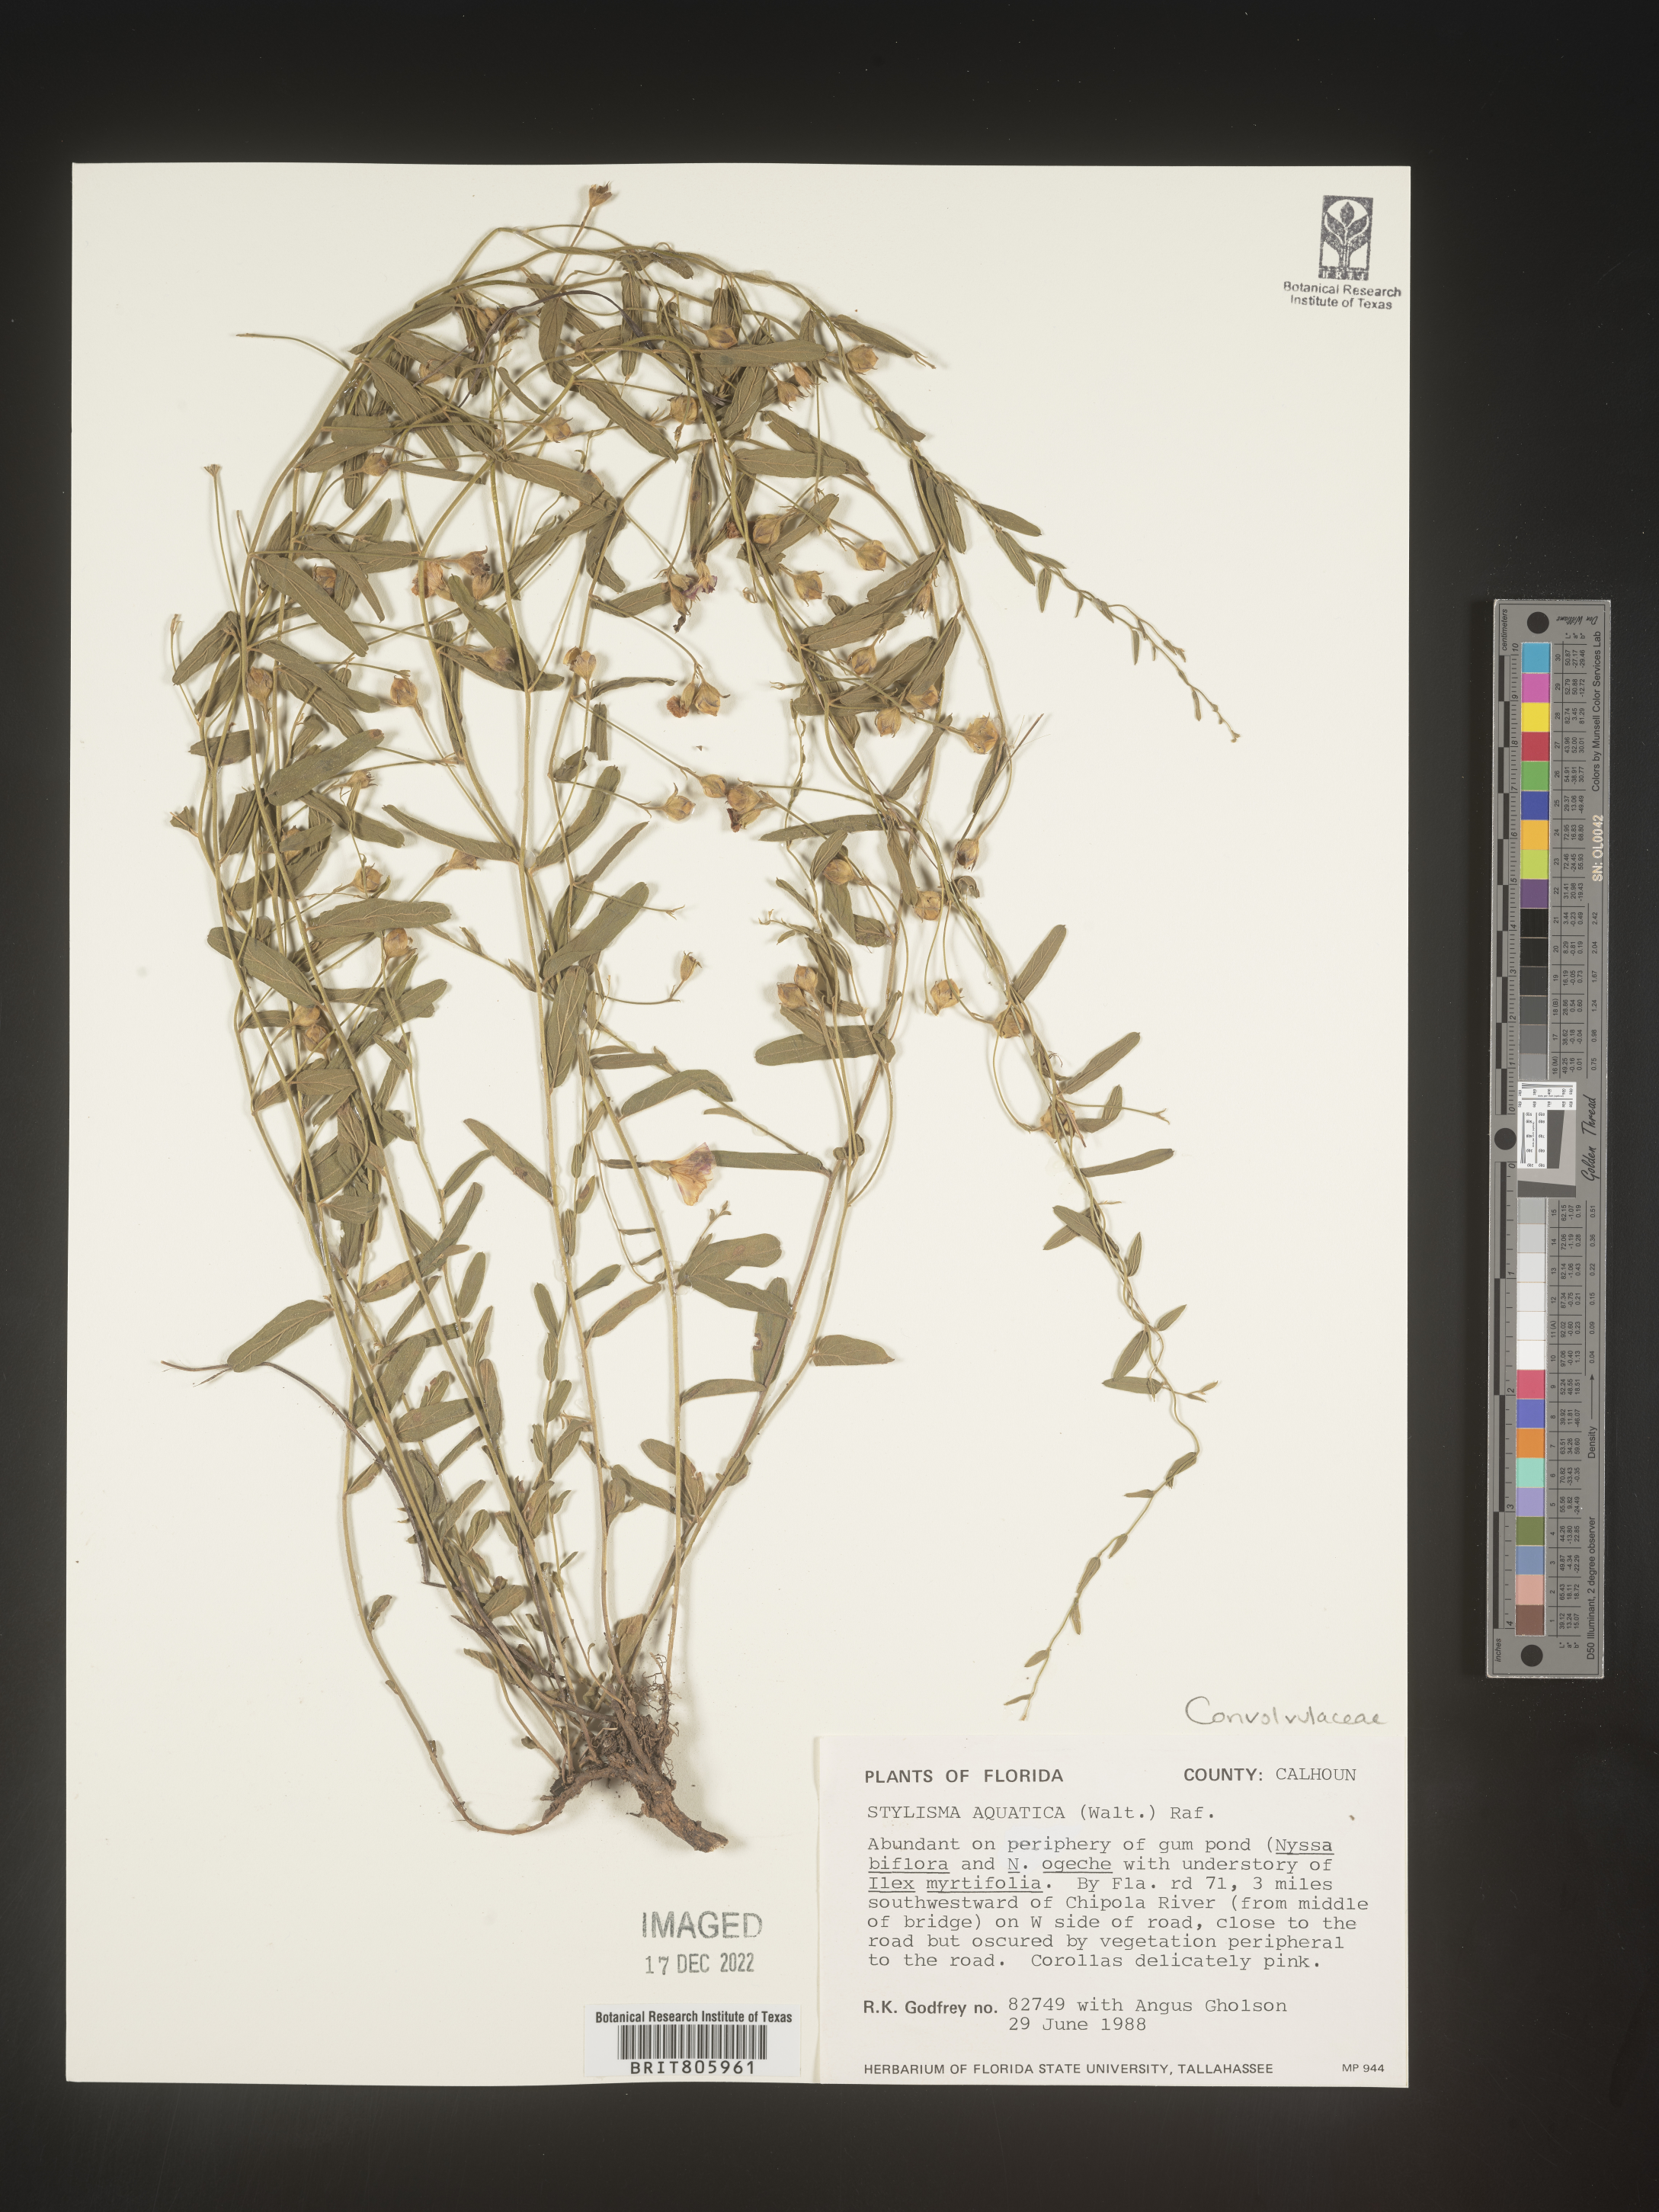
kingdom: Plantae
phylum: Tracheophyta
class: Magnoliopsida
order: Solanales
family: Convolvulaceae
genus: Stylisma
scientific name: Stylisma
